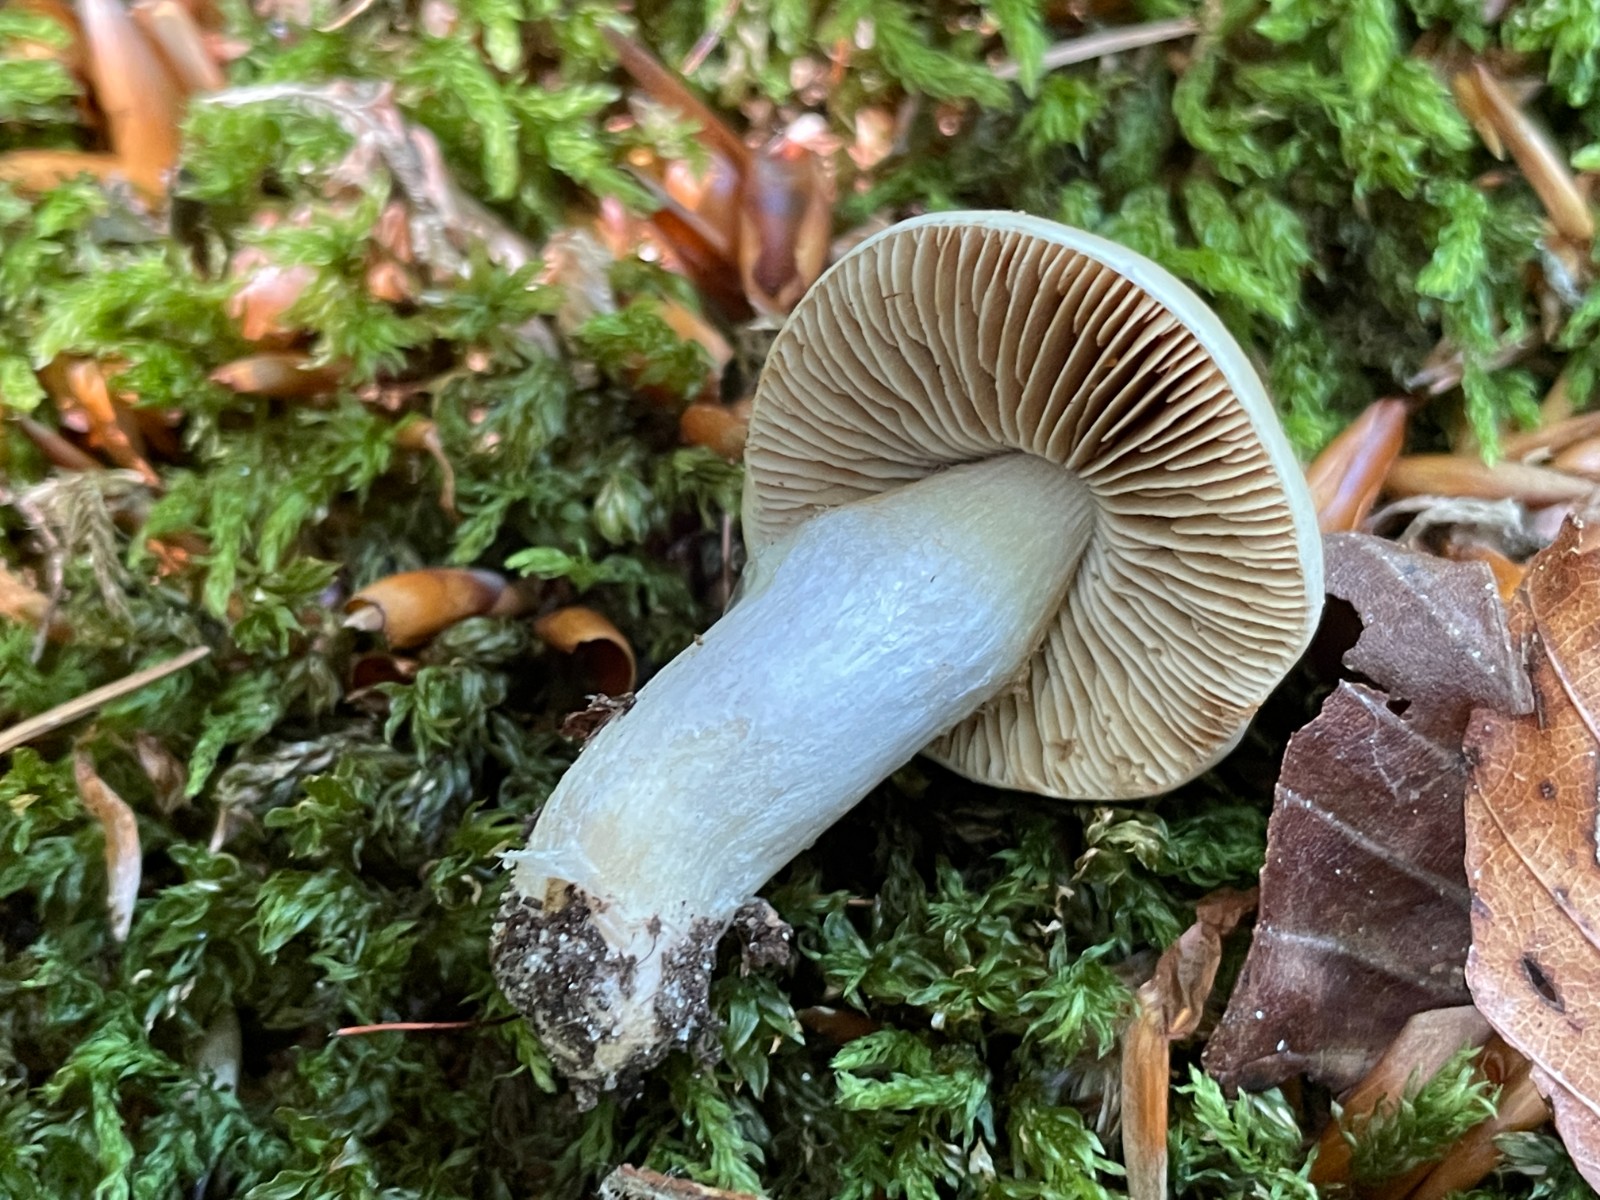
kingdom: Fungi
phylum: Basidiomycota
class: Agaricomycetes
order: Agaricales
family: Cortinariaceae
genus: Cortinarius
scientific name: Cortinarius elatior
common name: høj slørhat
